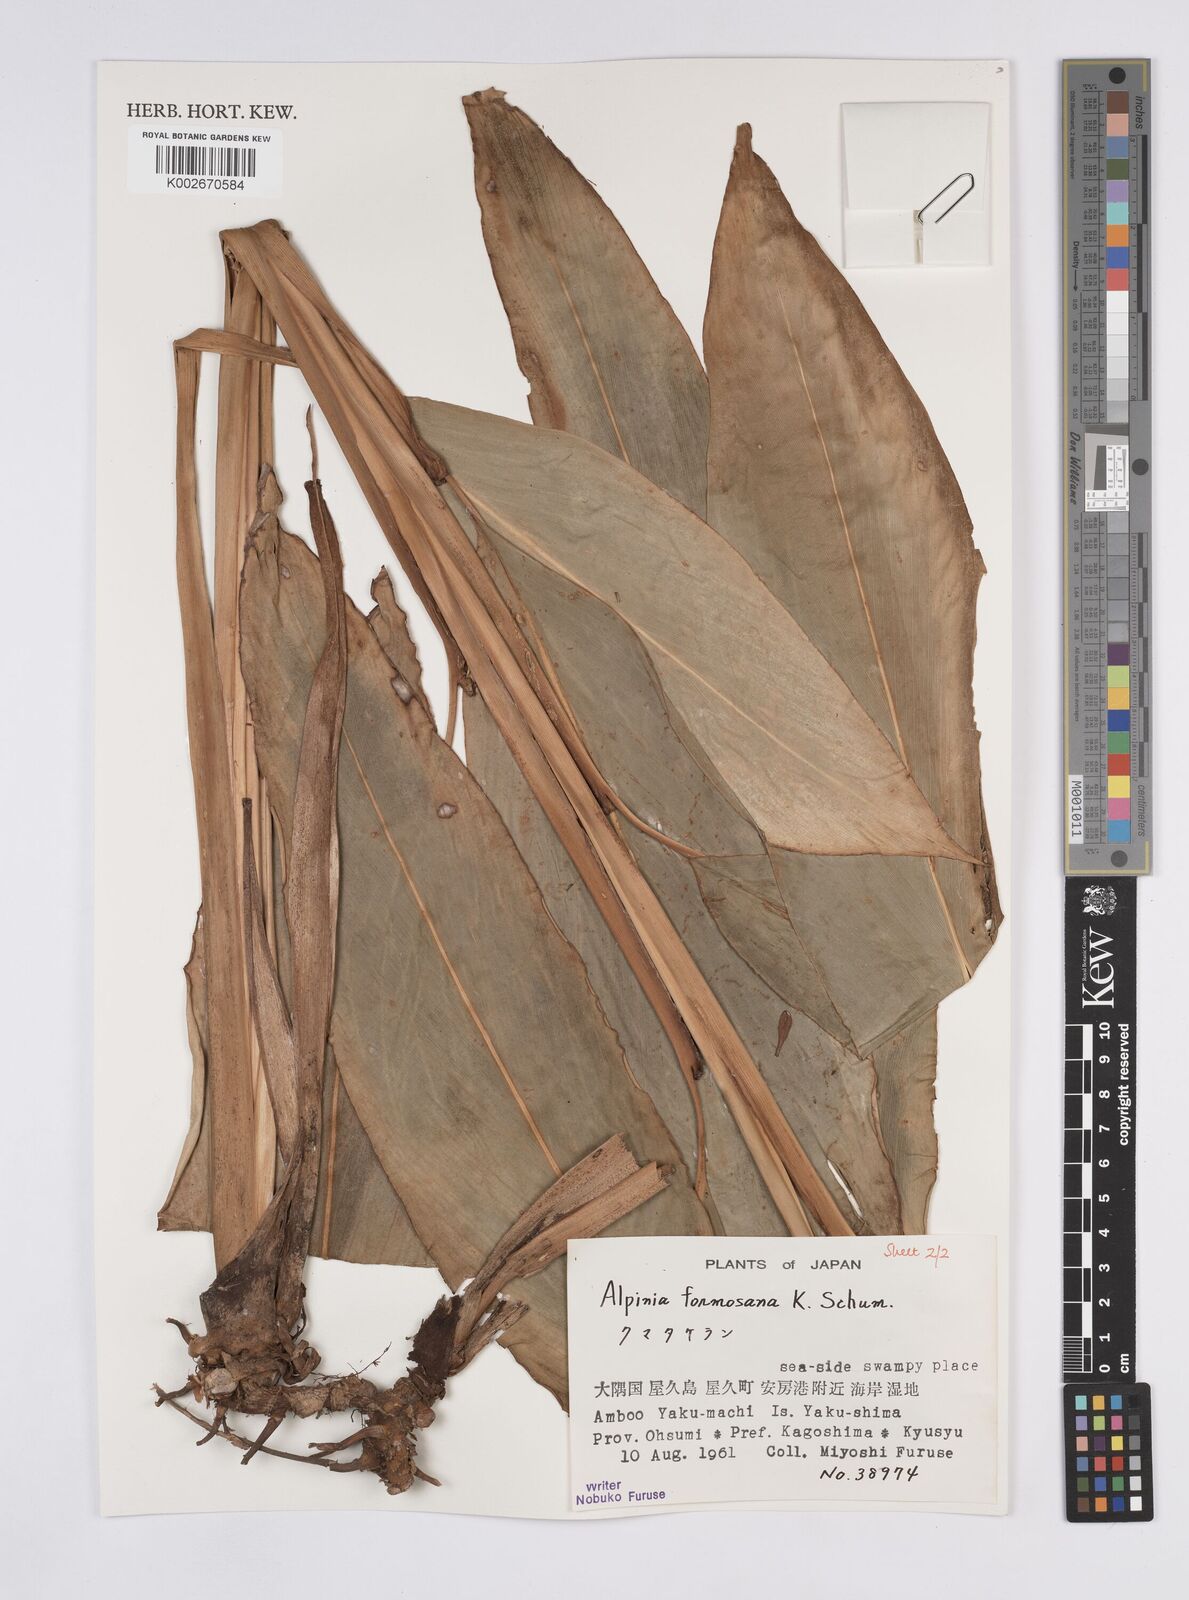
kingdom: Plantae
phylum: Tracheophyta
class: Liliopsida
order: Zingiberales
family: Zingiberaceae
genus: Alpinia
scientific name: Alpinia formosana
